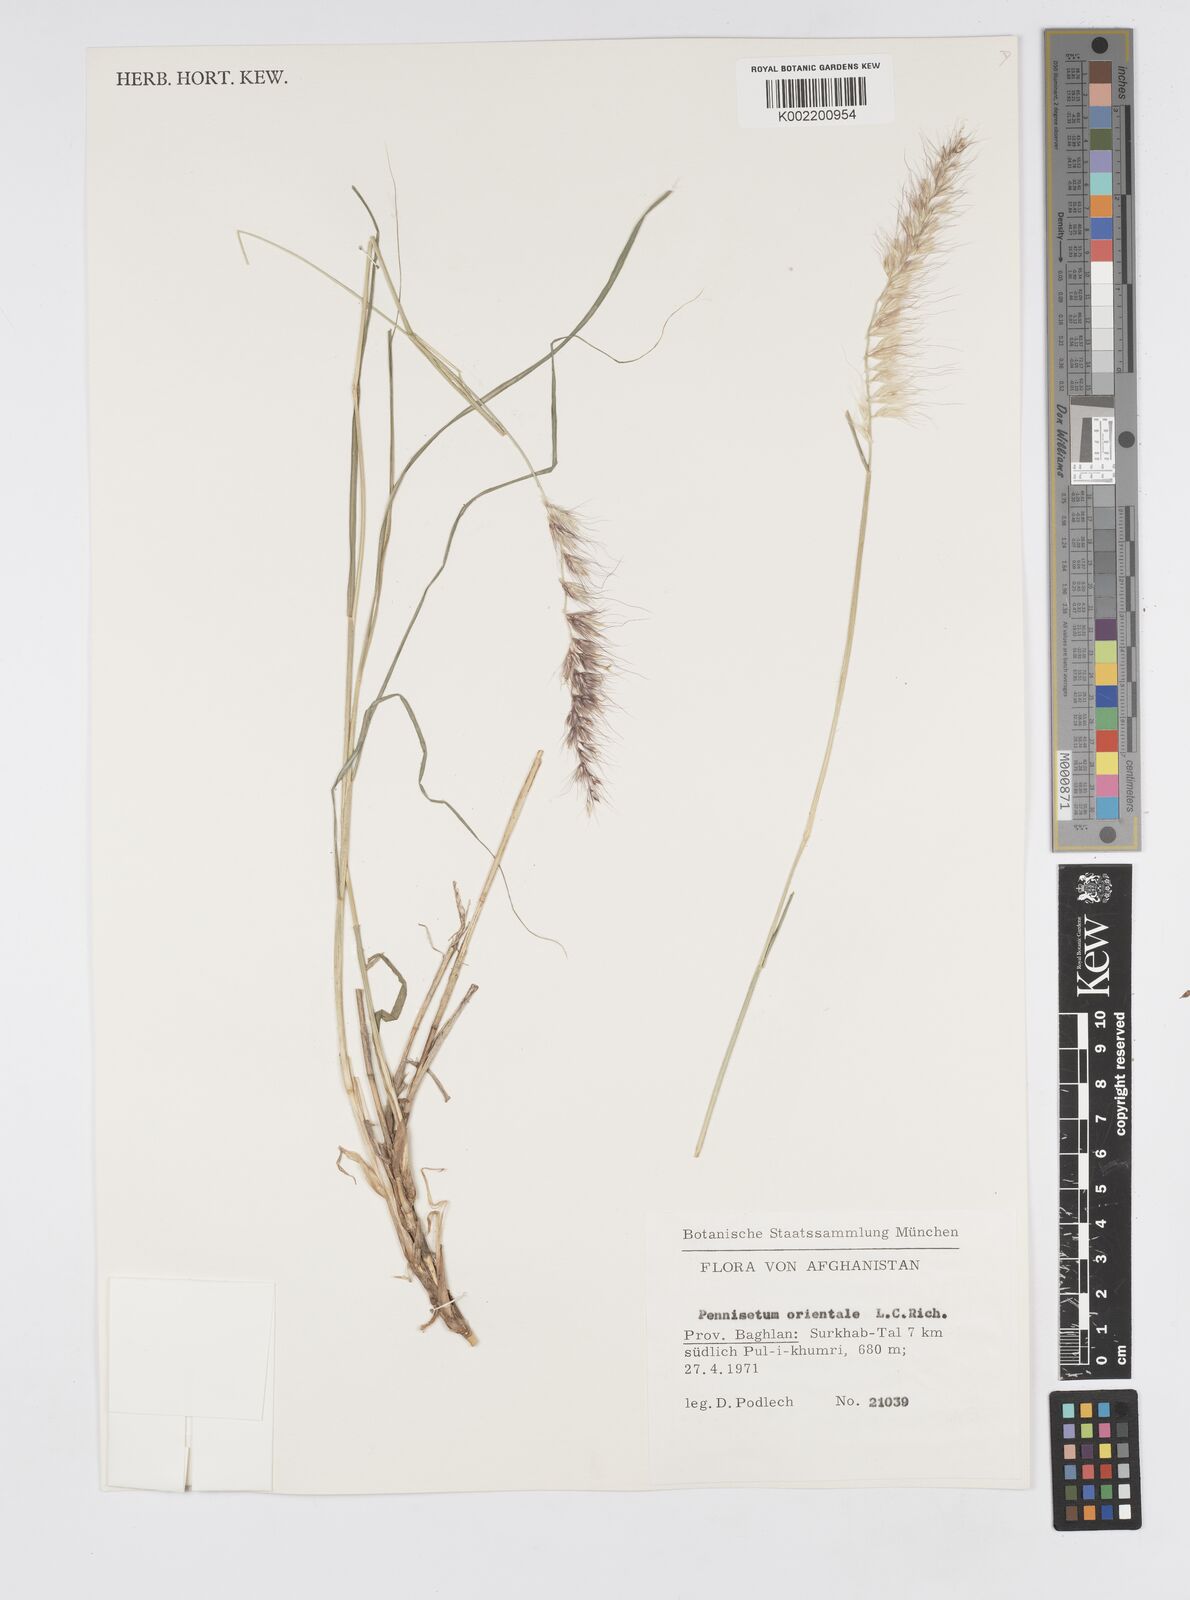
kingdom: Plantae
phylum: Tracheophyta
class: Liliopsida
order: Poales
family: Poaceae
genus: Cenchrus
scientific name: Cenchrus orientalis
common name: Oriental fountain grass
